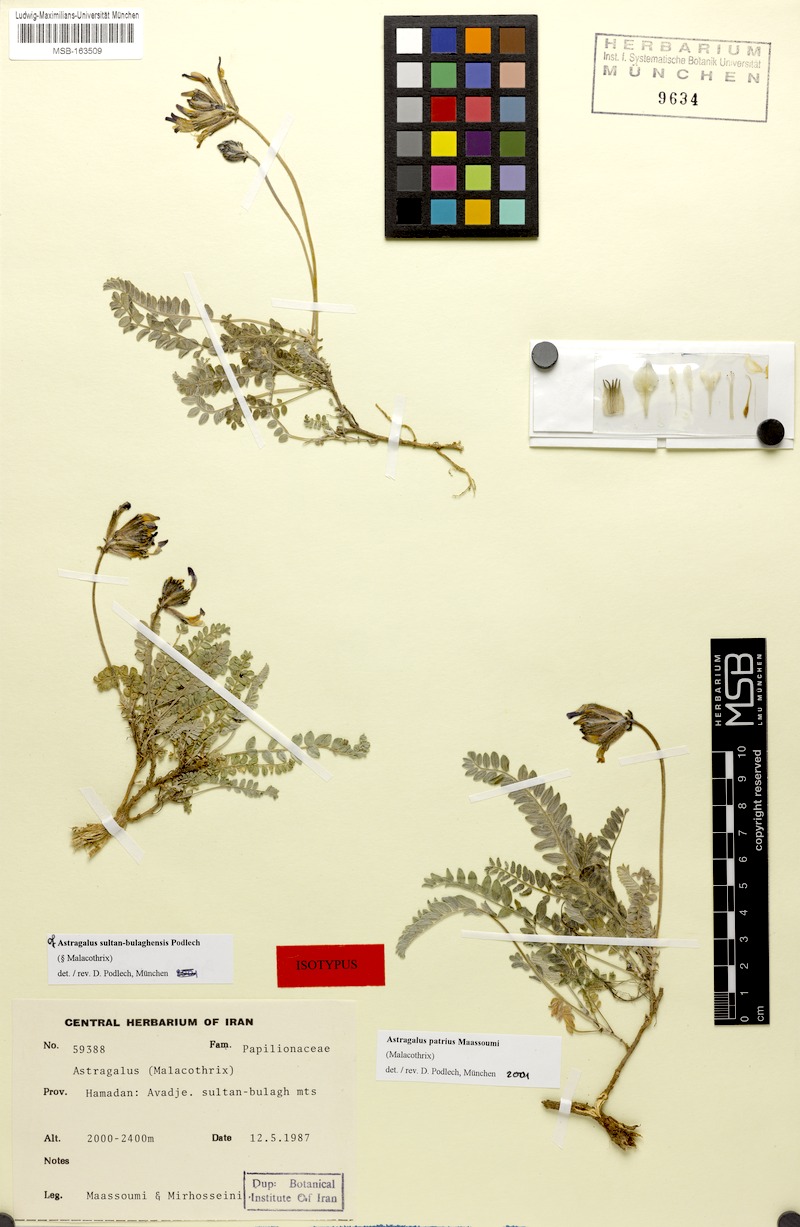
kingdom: Plantae
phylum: Tracheophyta
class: Magnoliopsida
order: Fabales
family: Fabaceae
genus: Astragalus
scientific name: Astragalus patrius
